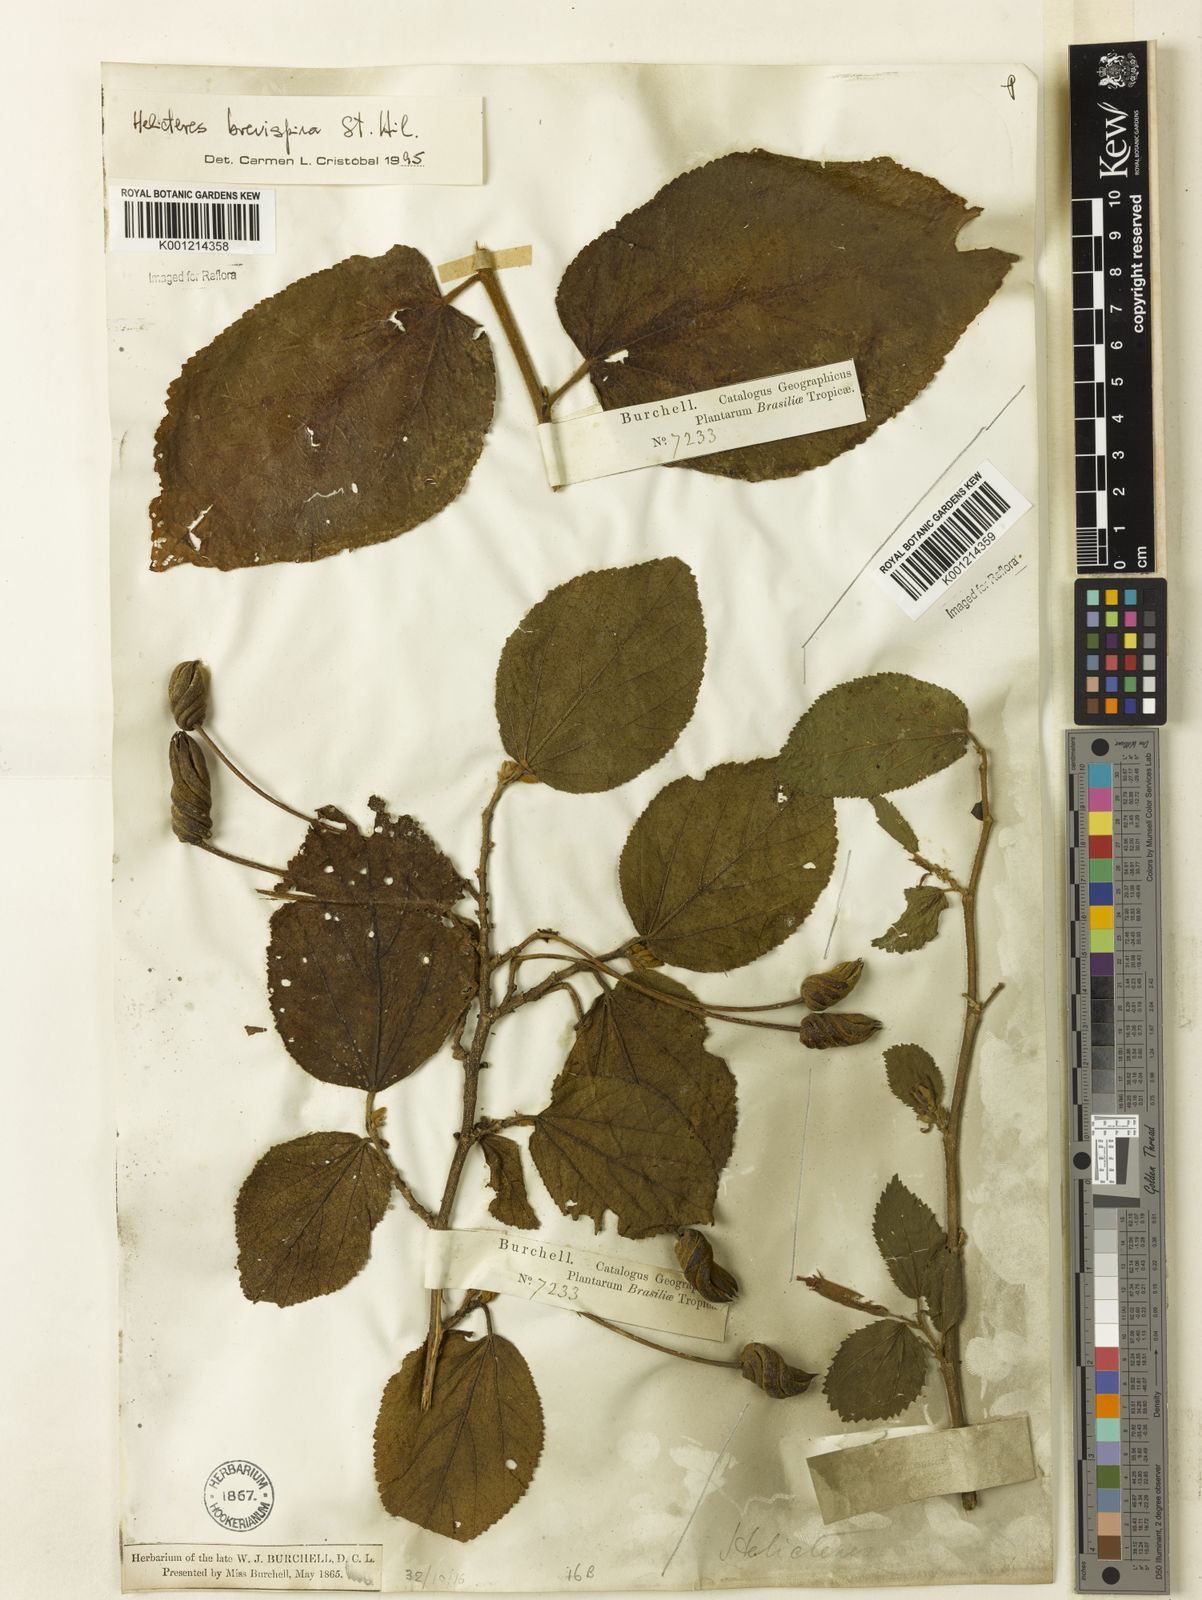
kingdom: Plantae
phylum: Tracheophyta
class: Magnoliopsida
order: Malvales
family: Malvaceae
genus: Helicteres
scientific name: Helicteres
